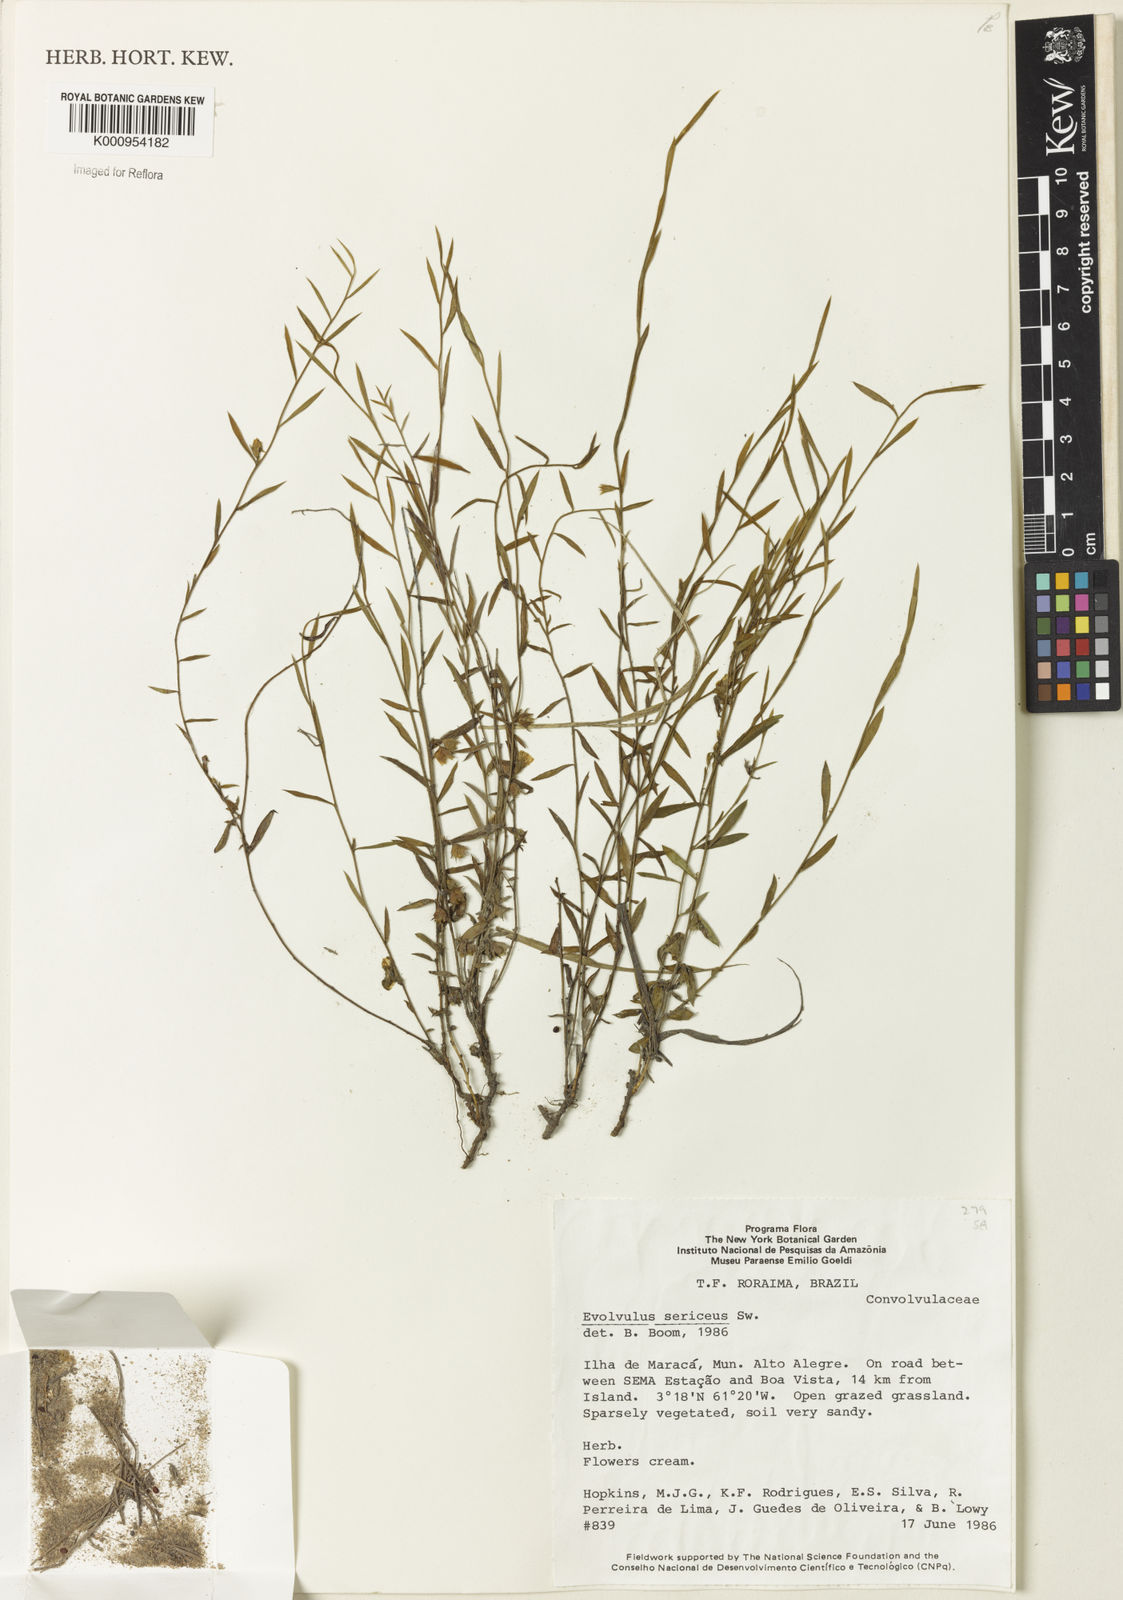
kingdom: Plantae
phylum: Tracheophyta
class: Magnoliopsida
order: Solanales
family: Convolvulaceae
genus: Evolvulus
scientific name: Evolvulus
